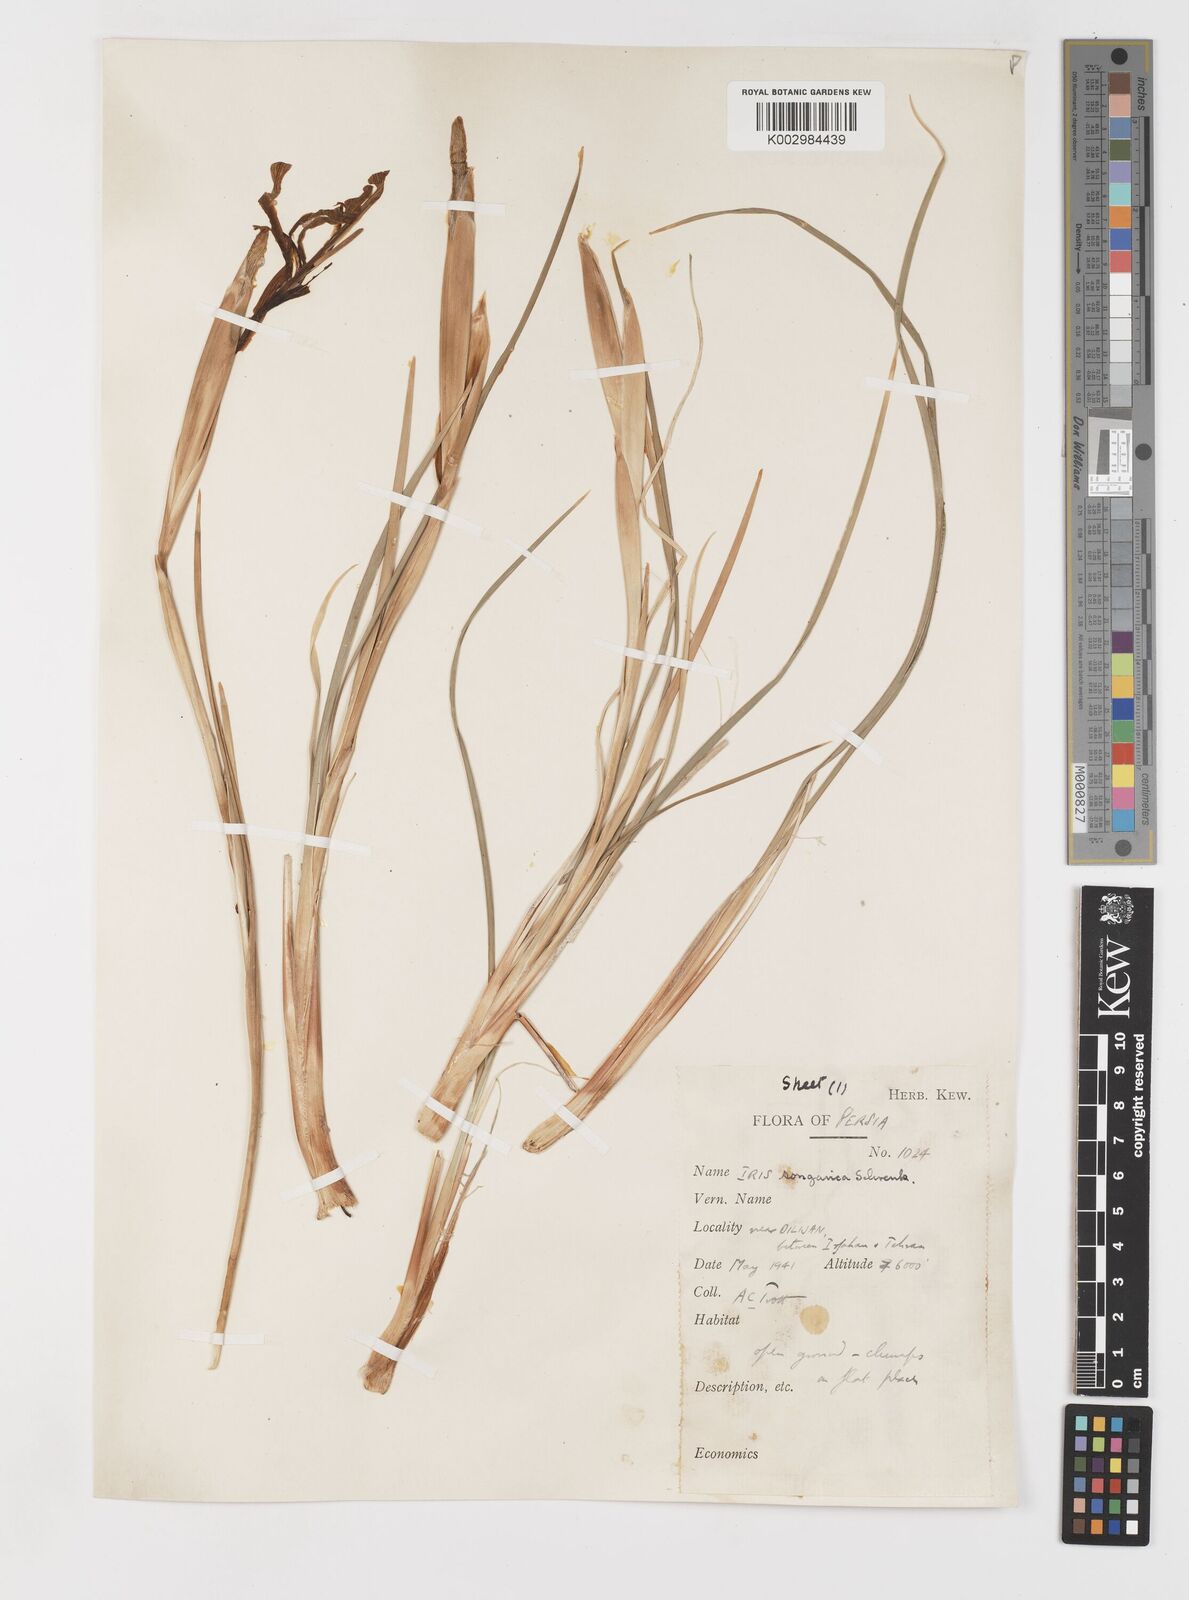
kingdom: Plantae
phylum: Tracheophyta
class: Liliopsida
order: Asparagales
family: Iridaceae
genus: Iris
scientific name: Iris songarica
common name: Songar iris
